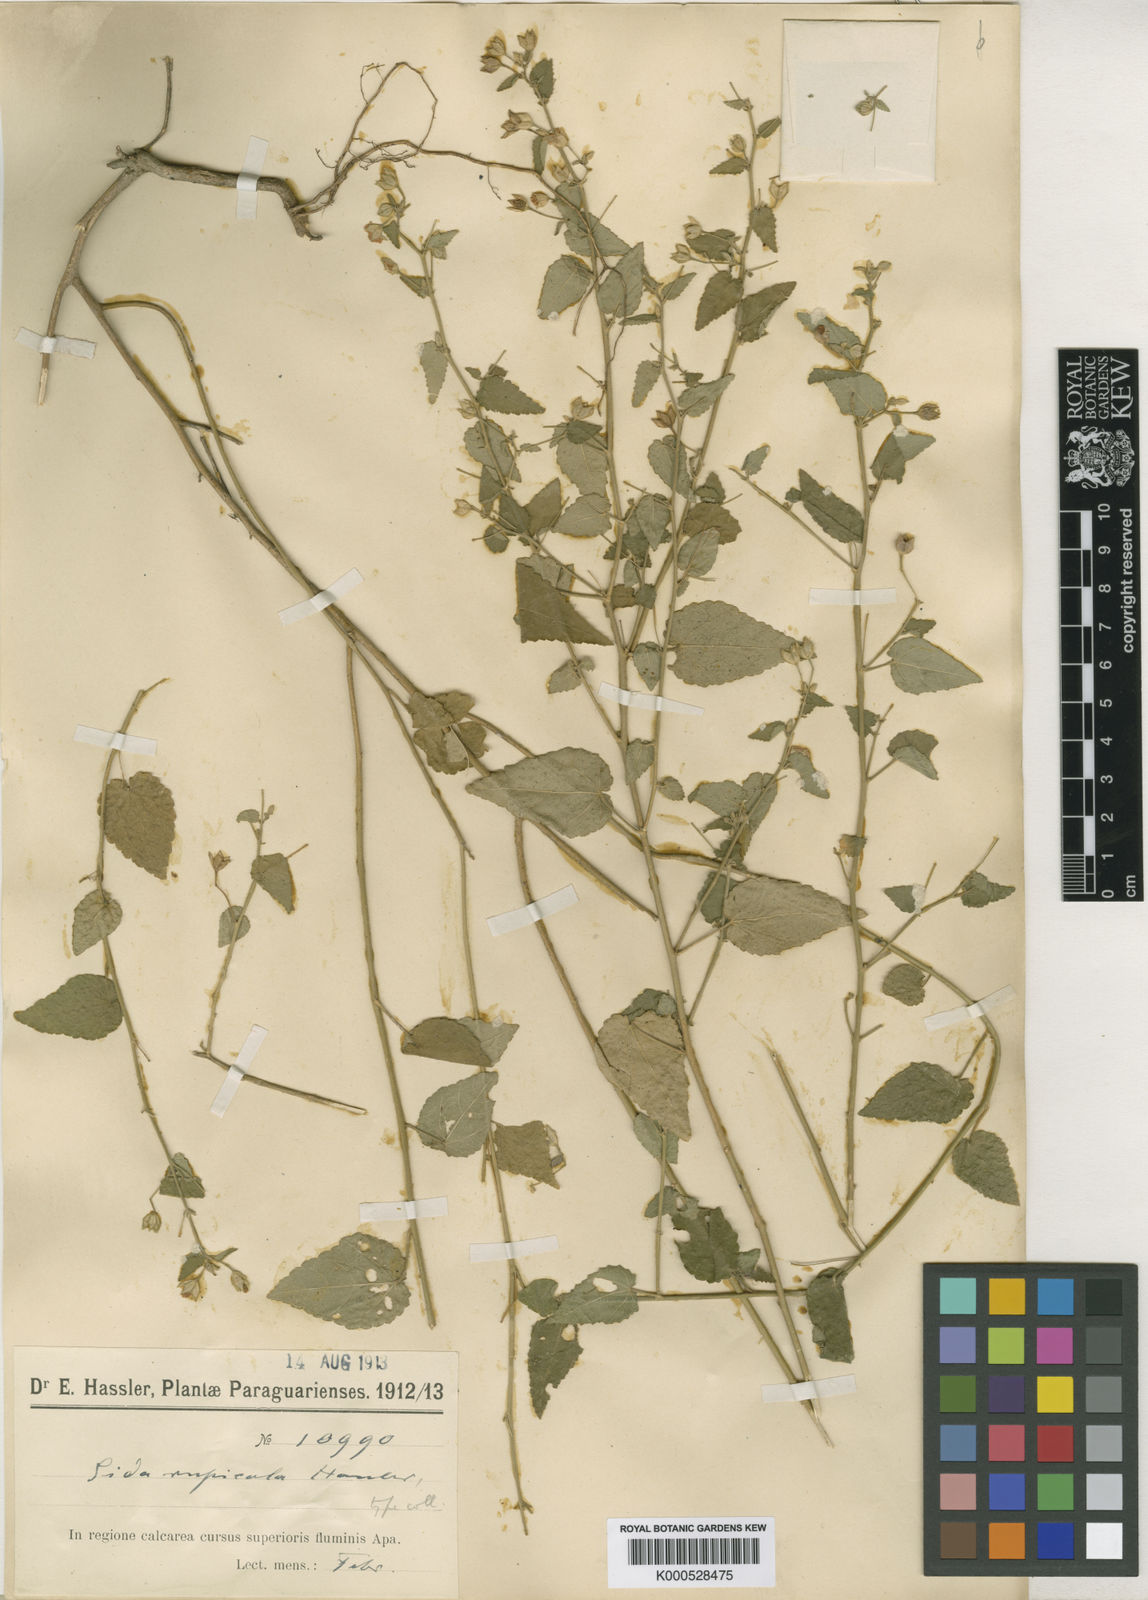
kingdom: Plantae
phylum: Tracheophyta
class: Magnoliopsida
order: Malvales
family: Malvaceae
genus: Sida
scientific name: Sida rupicola
